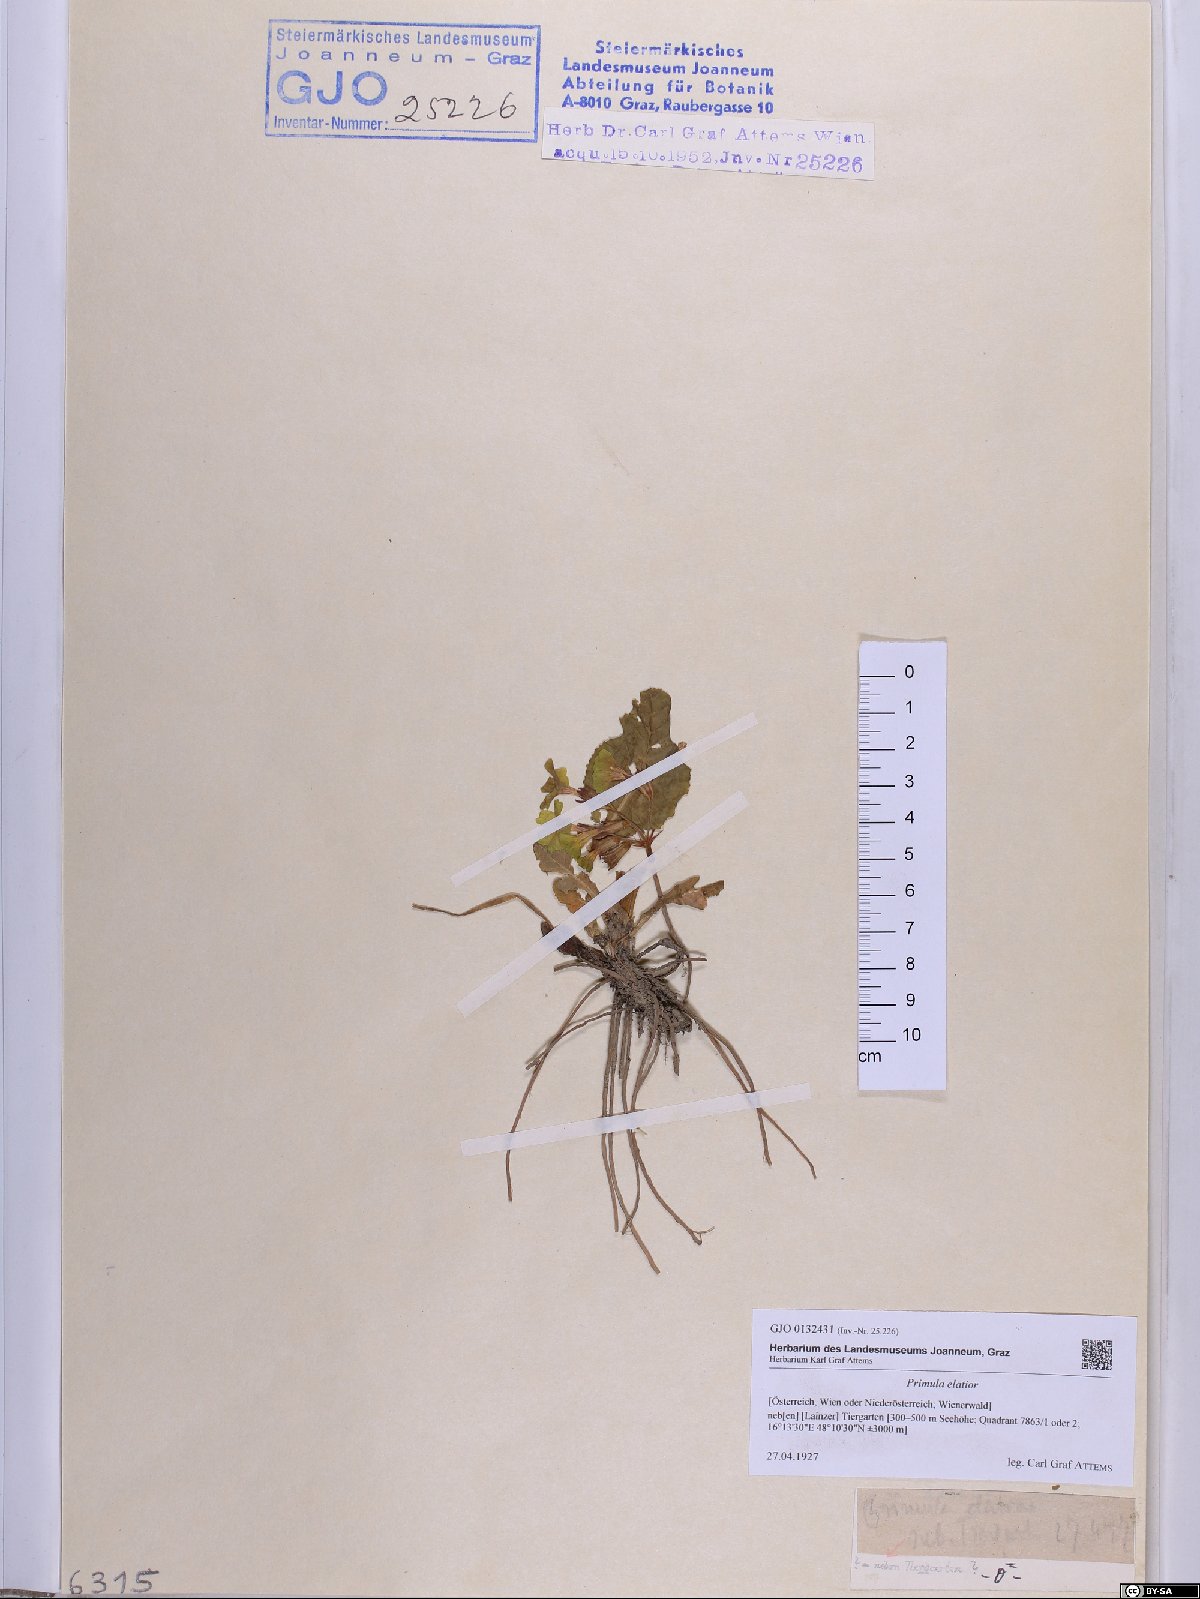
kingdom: Plantae
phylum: Tracheophyta
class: Magnoliopsida
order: Ericales
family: Primulaceae
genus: Primula
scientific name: Primula elatior
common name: Oxlip
